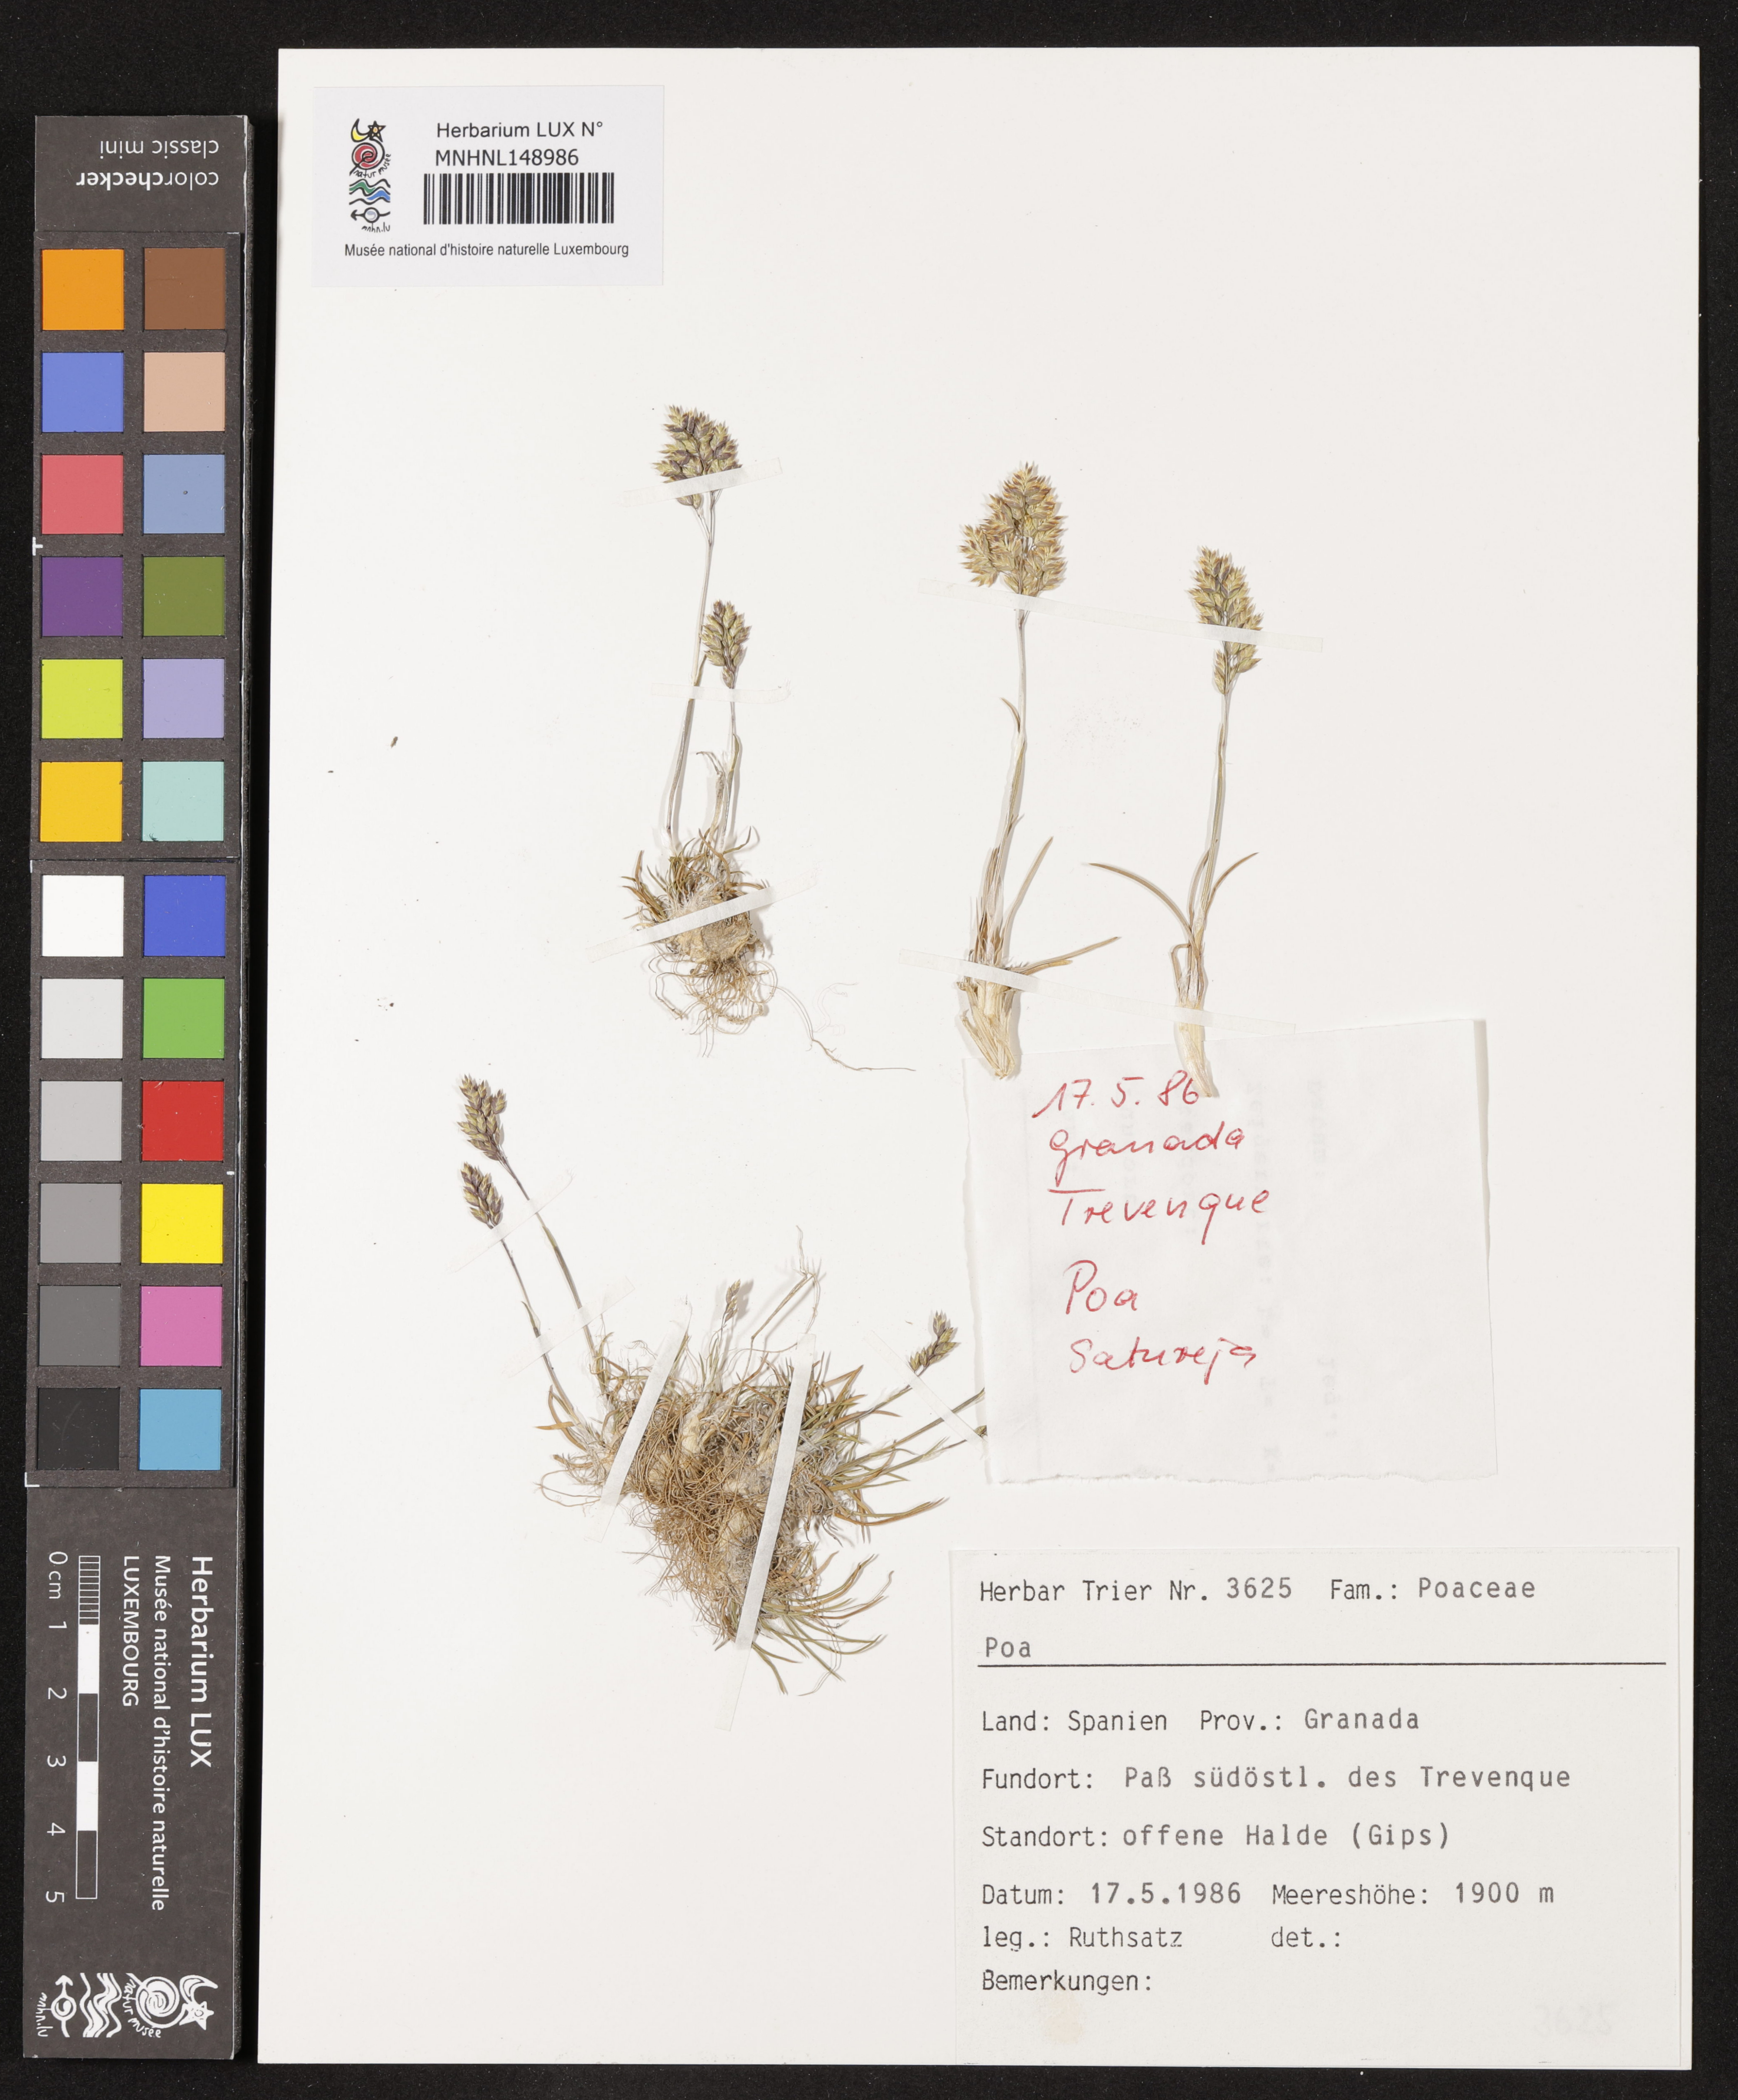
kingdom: Plantae
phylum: Tracheophyta
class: Liliopsida
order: Poales
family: Poaceae
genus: Poa
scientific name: Poa
